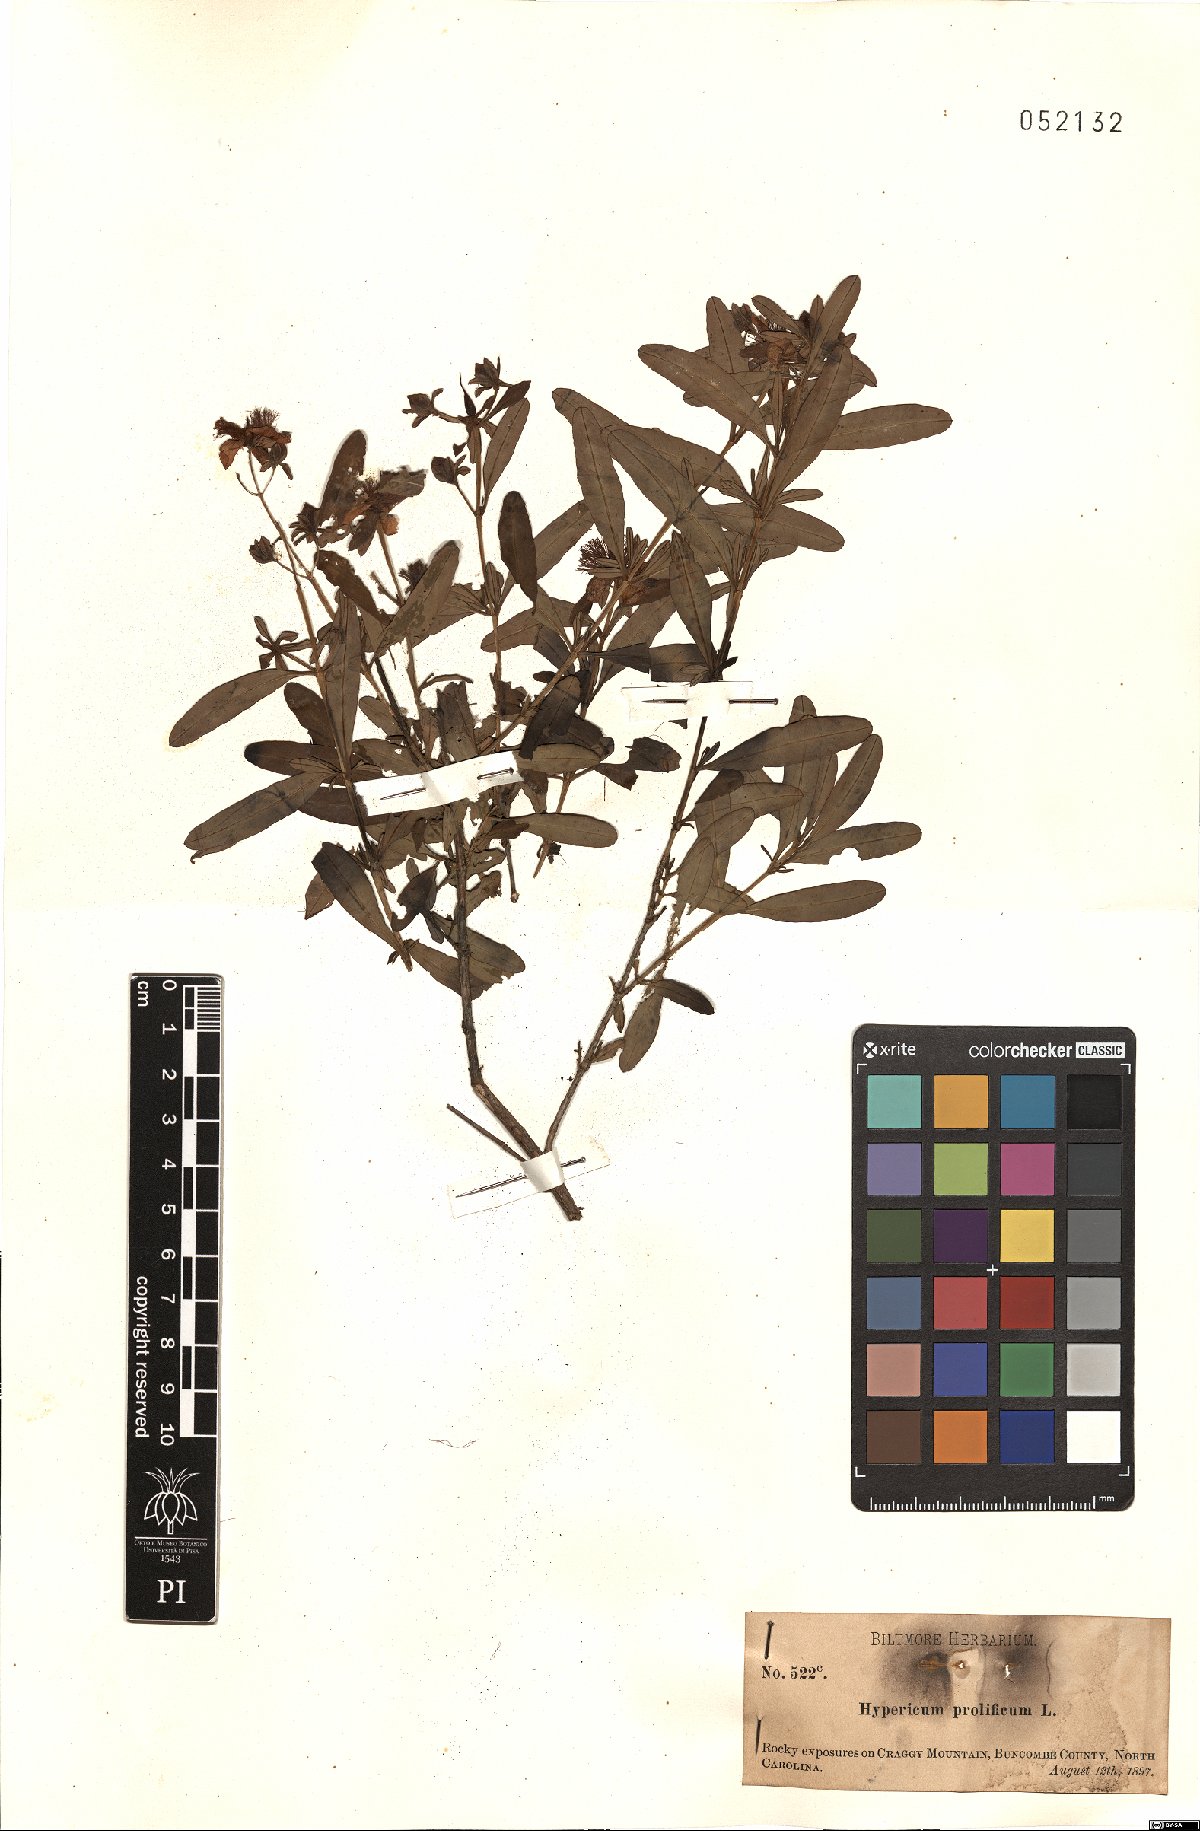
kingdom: Plantae
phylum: Tracheophyta
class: Magnoliopsida
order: Malpighiales
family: Hypericaceae
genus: Hypericum
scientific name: Hypericum prolificum
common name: Shrubby st. john's-wort
